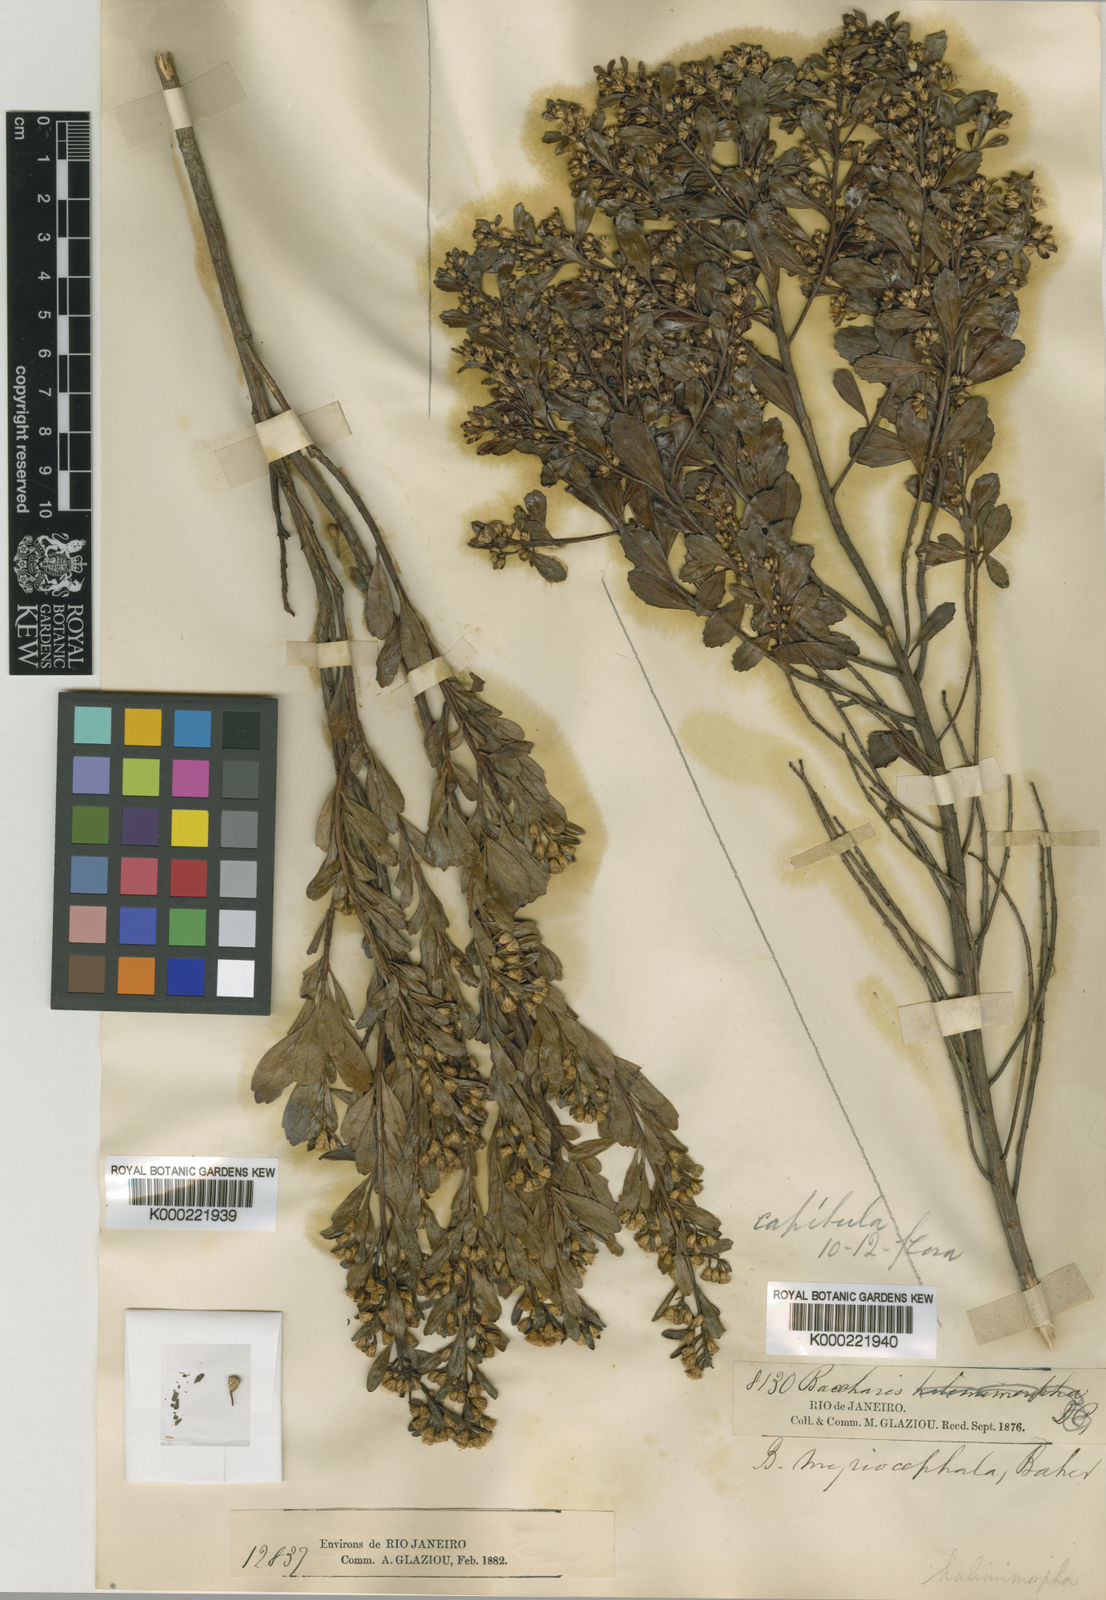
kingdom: Plantae
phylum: Tracheophyta
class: Magnoliopsida
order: Asterales
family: Asteraceae
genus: Baccharis
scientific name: Baccharis
